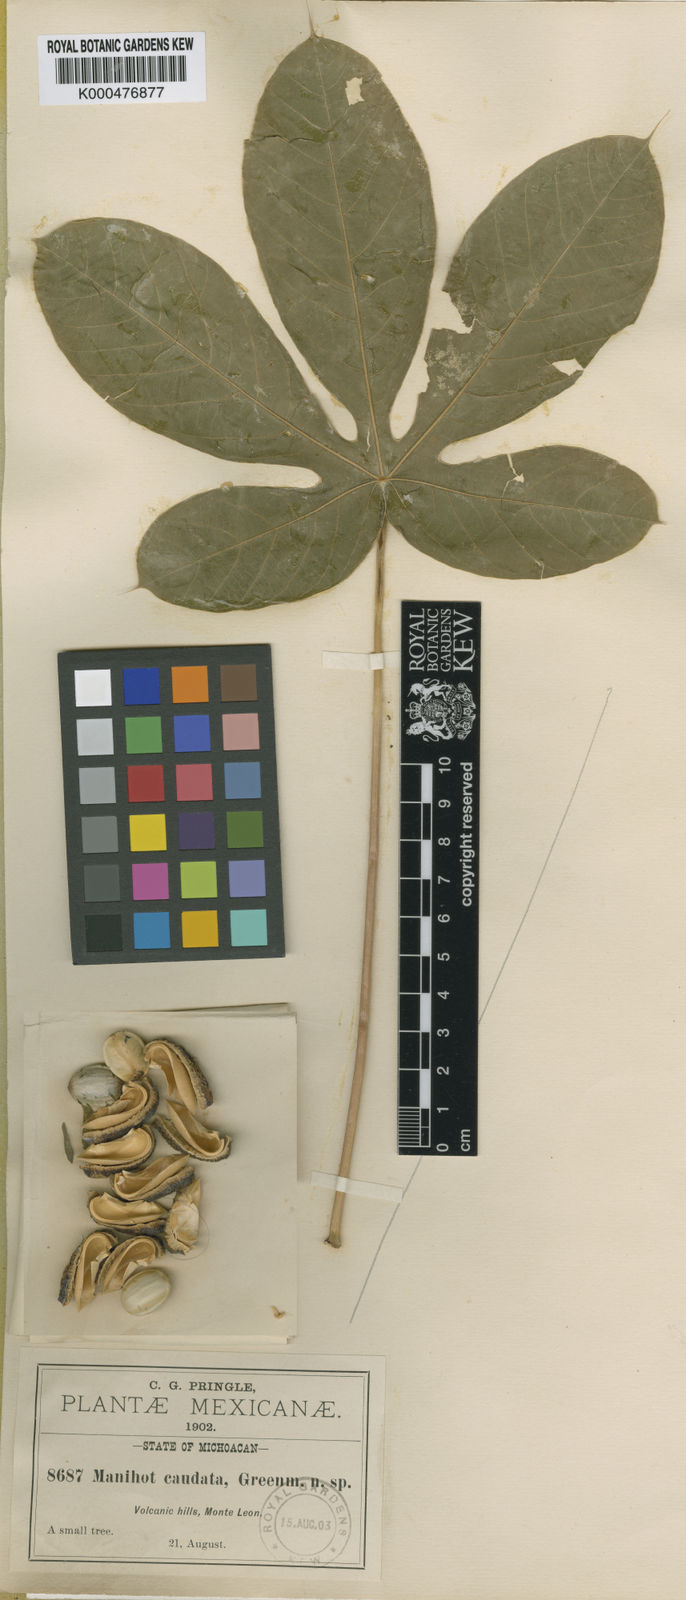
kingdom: Plantae
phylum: Tracheophyta
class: Magnoliopsida
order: Malpighiales
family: Euphorbiaceae
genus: Manihot
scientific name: Manihot caudata
